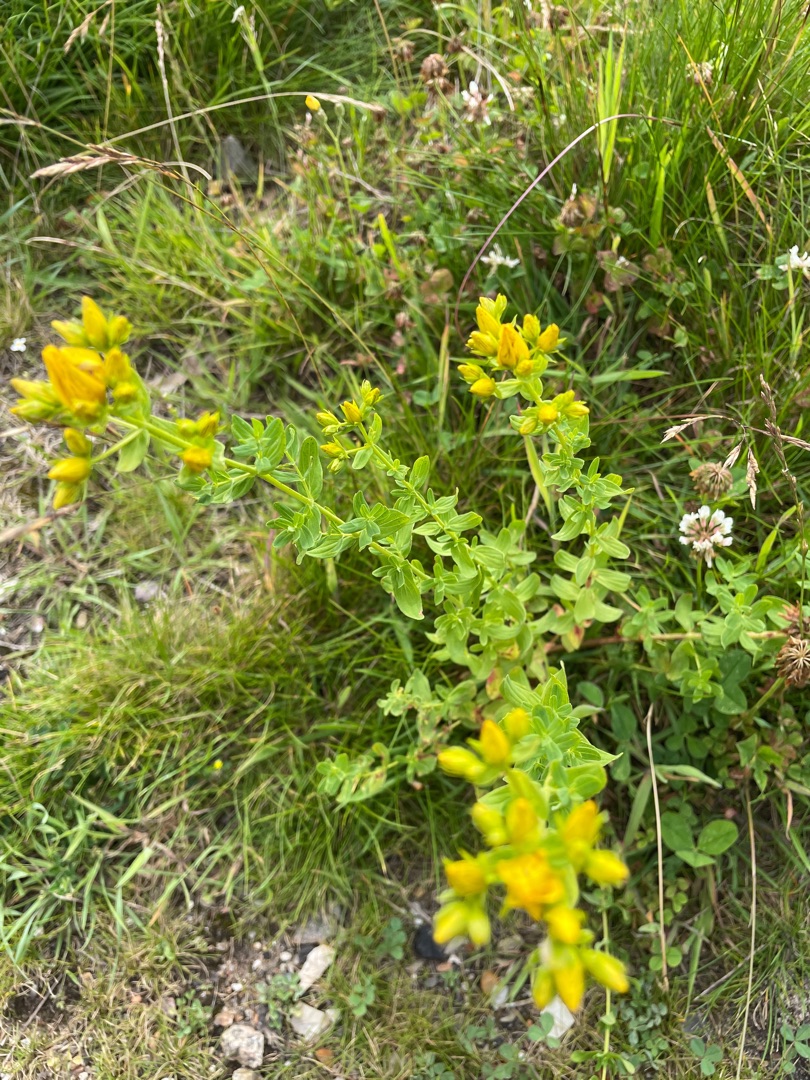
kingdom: Plantae
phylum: Tracheophyta
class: Magnoliopsida
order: Malpighiales
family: Hypericaceae
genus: Hypericum
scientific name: Hypericum perforatum
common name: Prikbladet perikon
